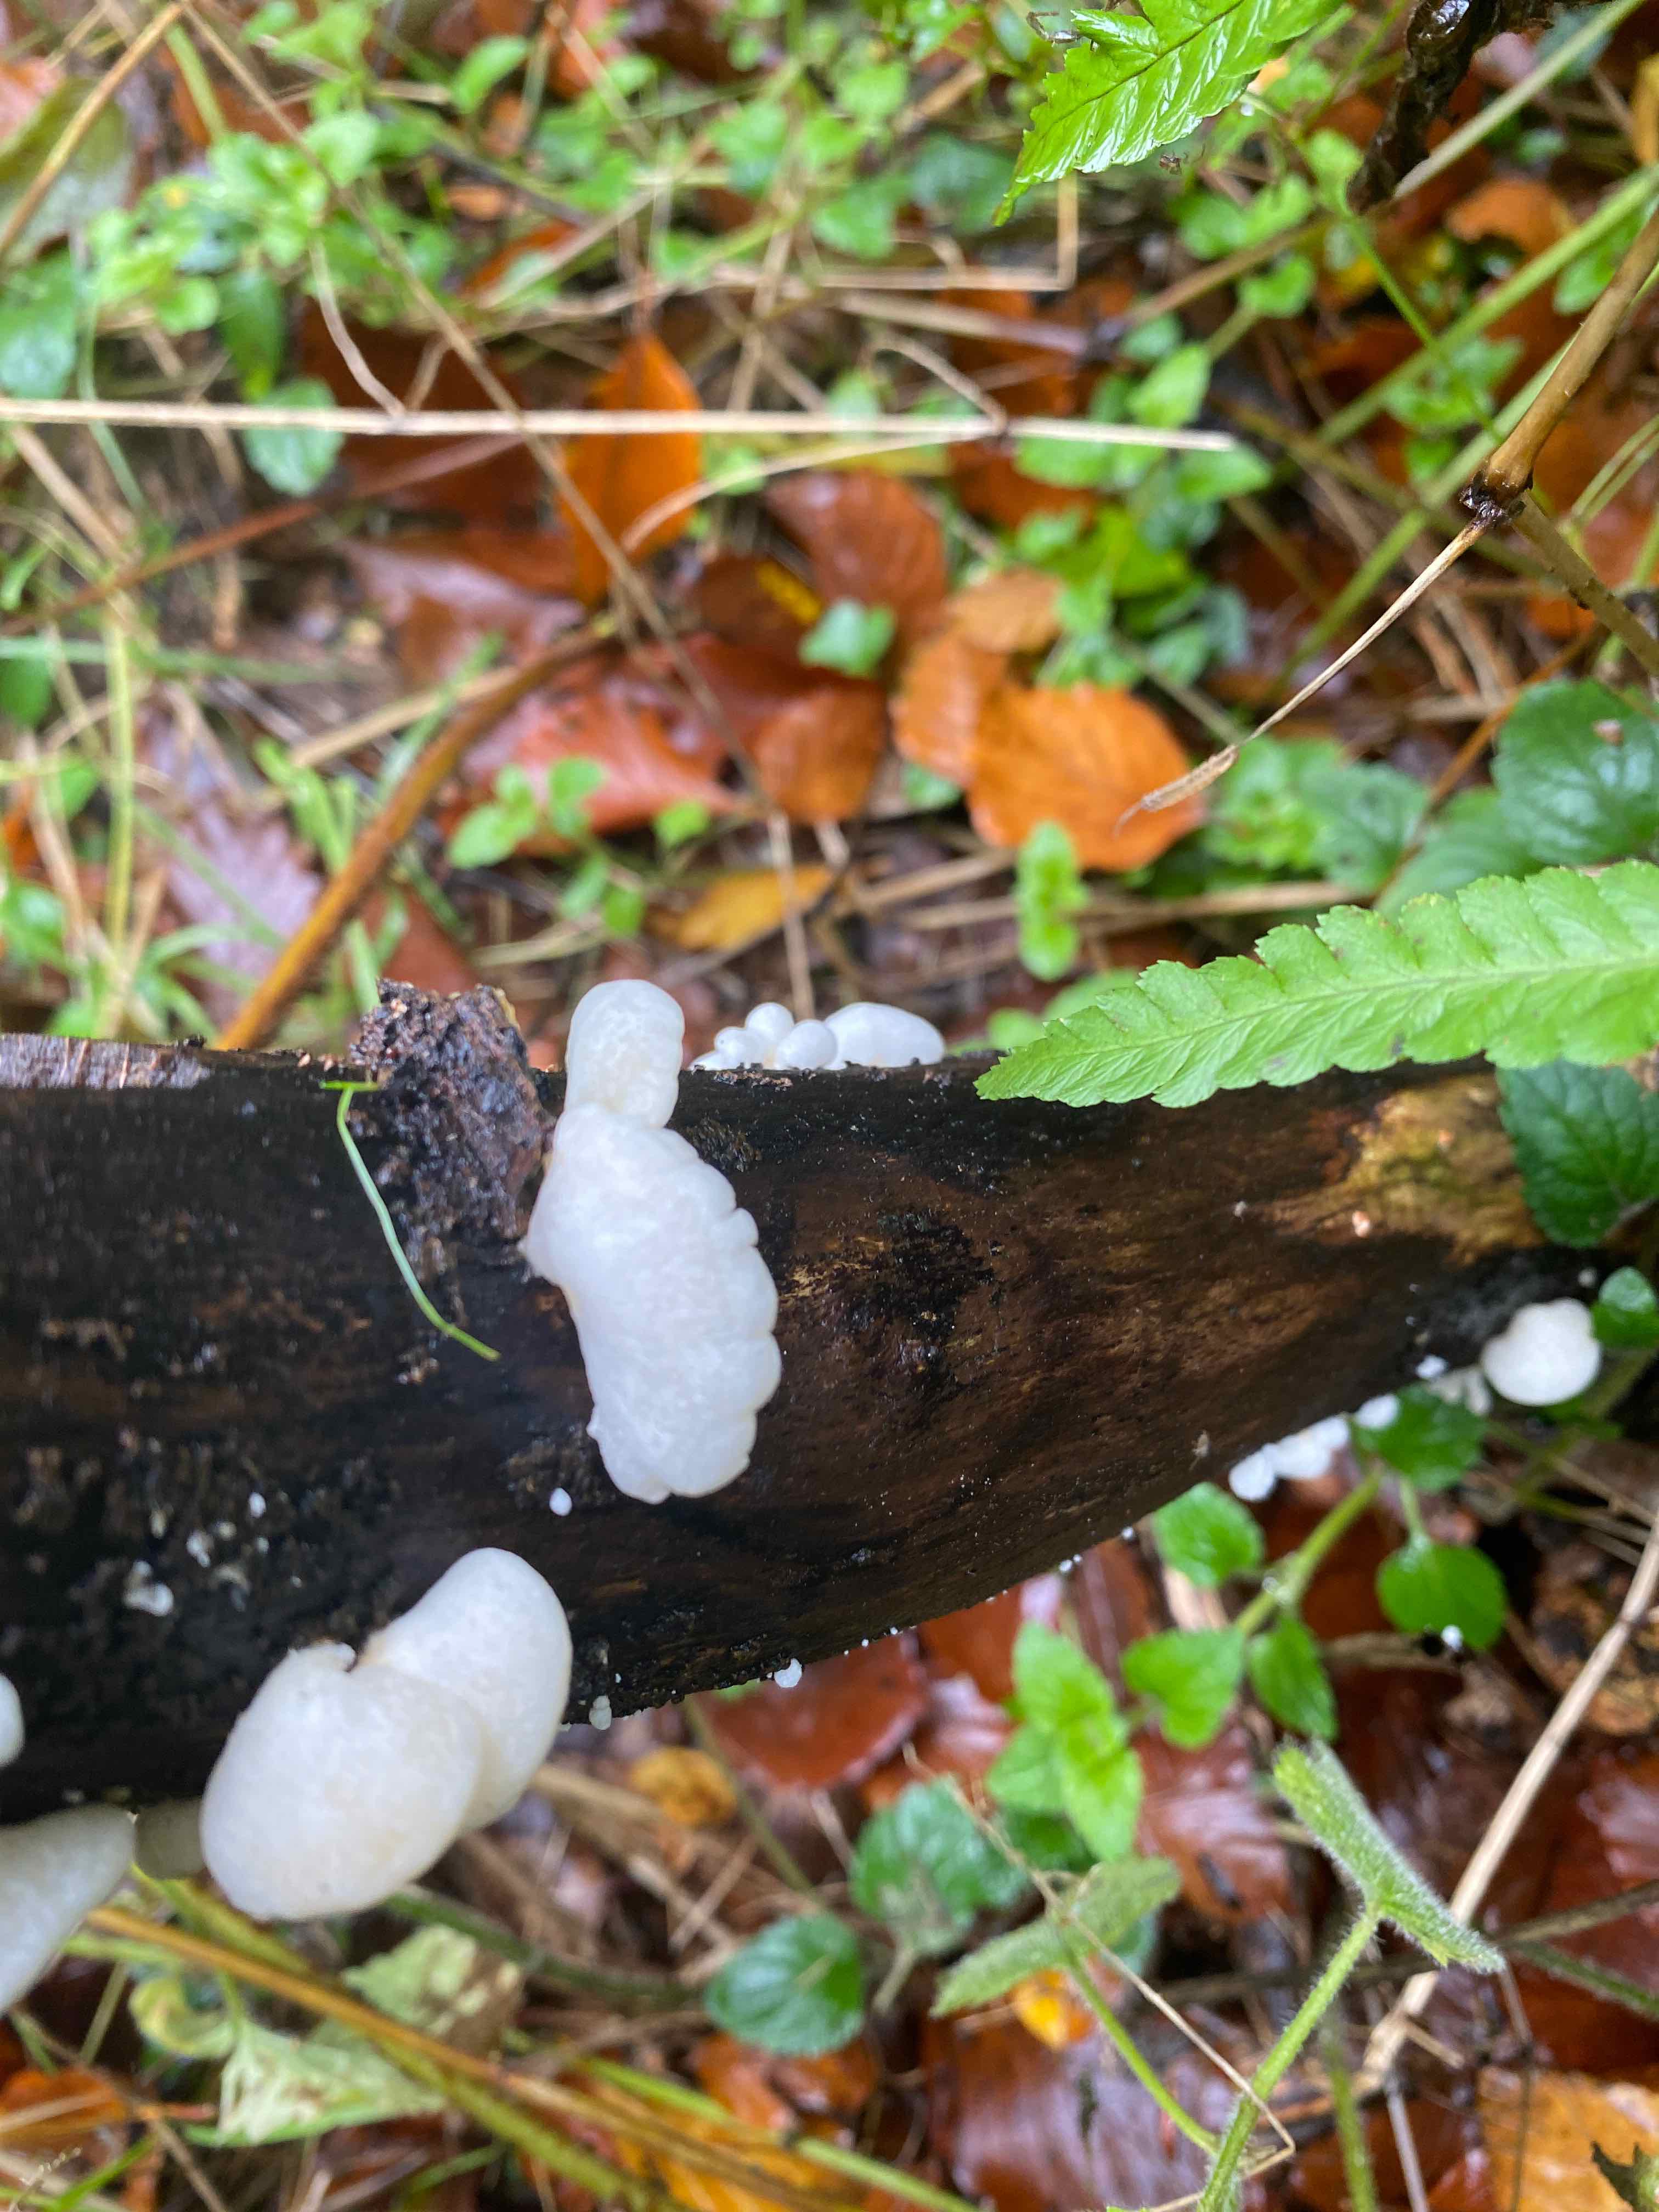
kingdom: Fungi
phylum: Basidiomycota
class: Agaricomycetes
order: Agaricales
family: Crepidotaceae
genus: Crepidotus
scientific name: Crepidotus
